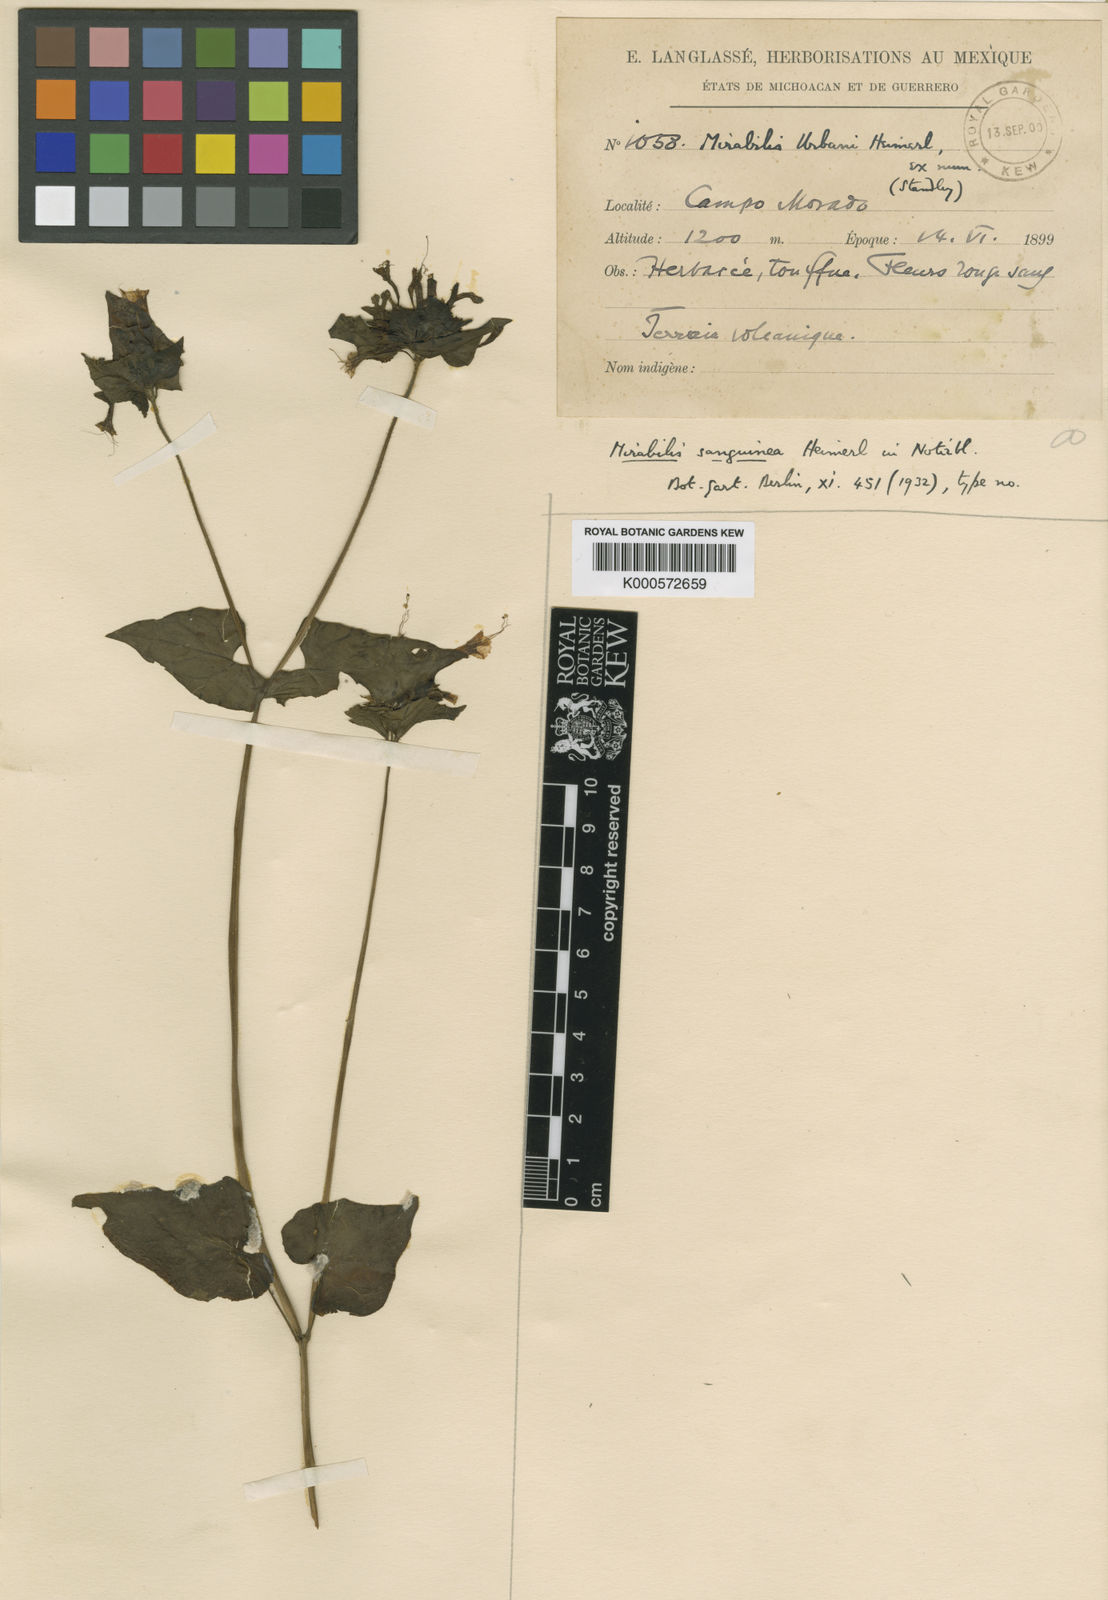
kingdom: Plantae
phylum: Tracheophyta
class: Magnoliopsida
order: Caryophyllales
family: Nyctaginaceae
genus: Mirabilis
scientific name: Mirabilis sanguinea
